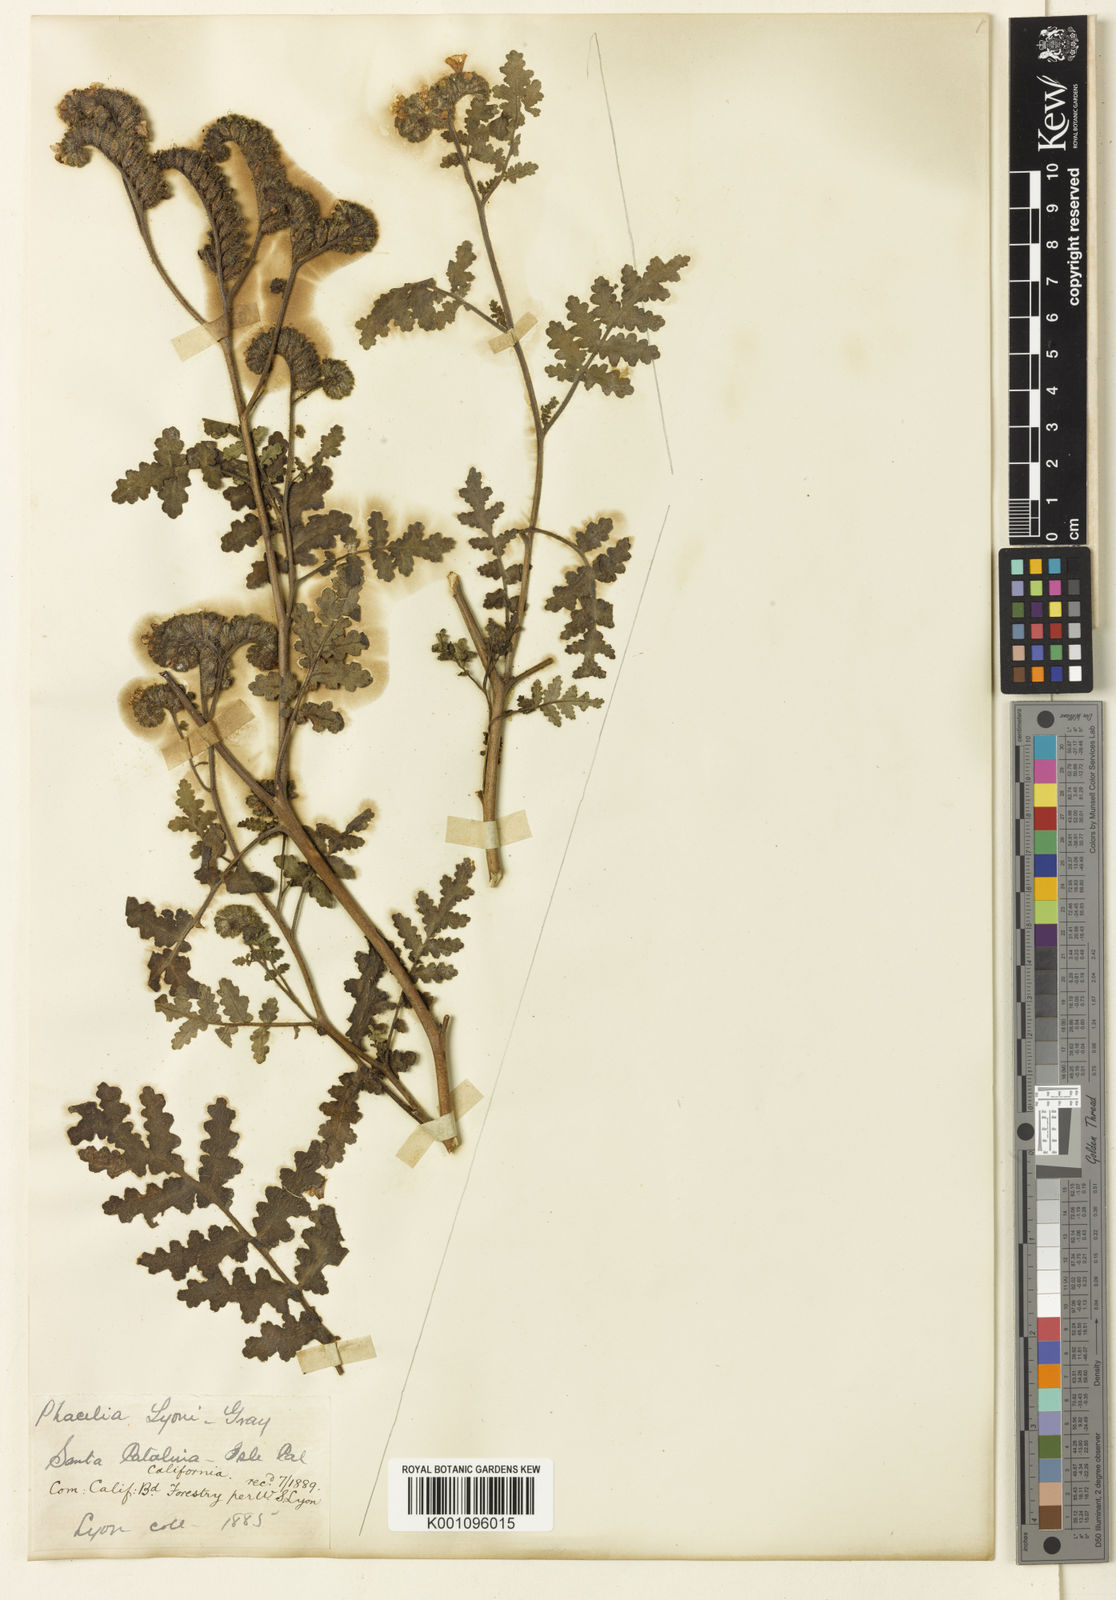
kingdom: Plantae
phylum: Tracheophyta
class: Magnoliopsida
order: Boraginales
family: Hydrophyllaceae
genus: Phacelia
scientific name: Phacelia lyonii
